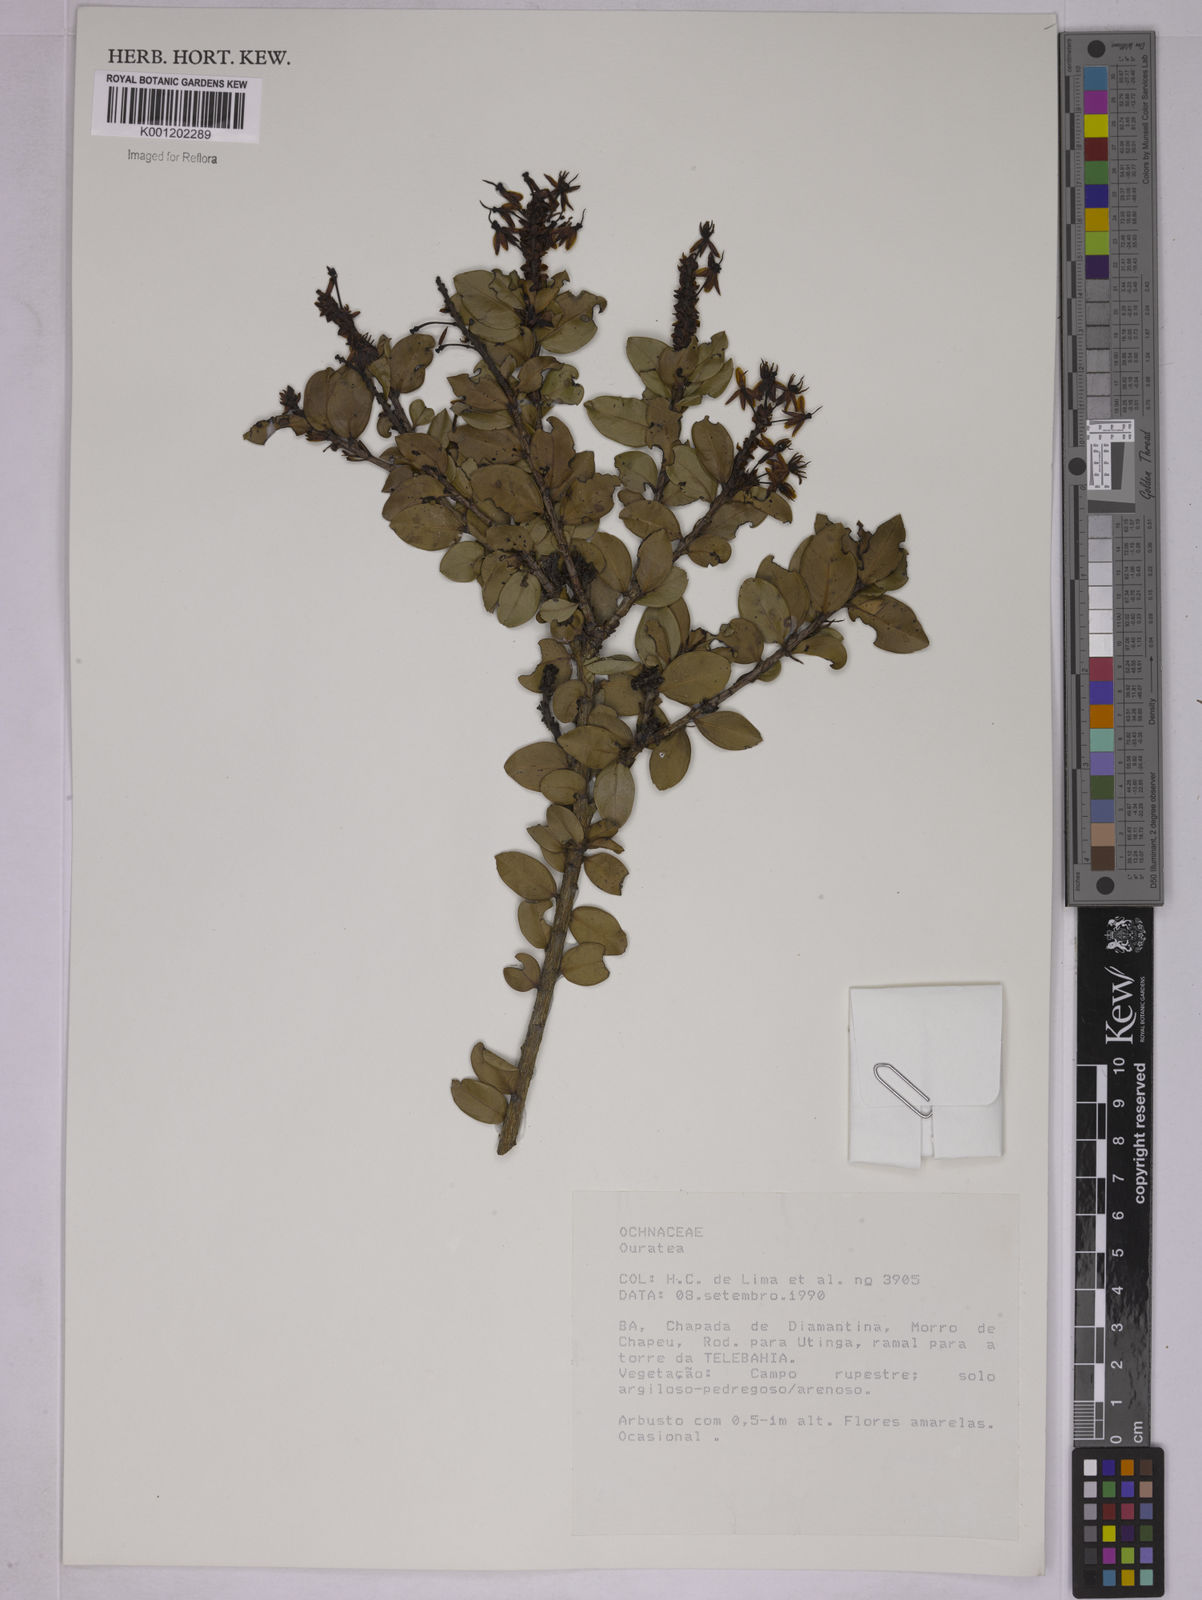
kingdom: Plantae
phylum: Tracheophyta
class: Magnoliopsida
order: Malpighiales
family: Ochnaceae
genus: Ouratea
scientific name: Ouratea
